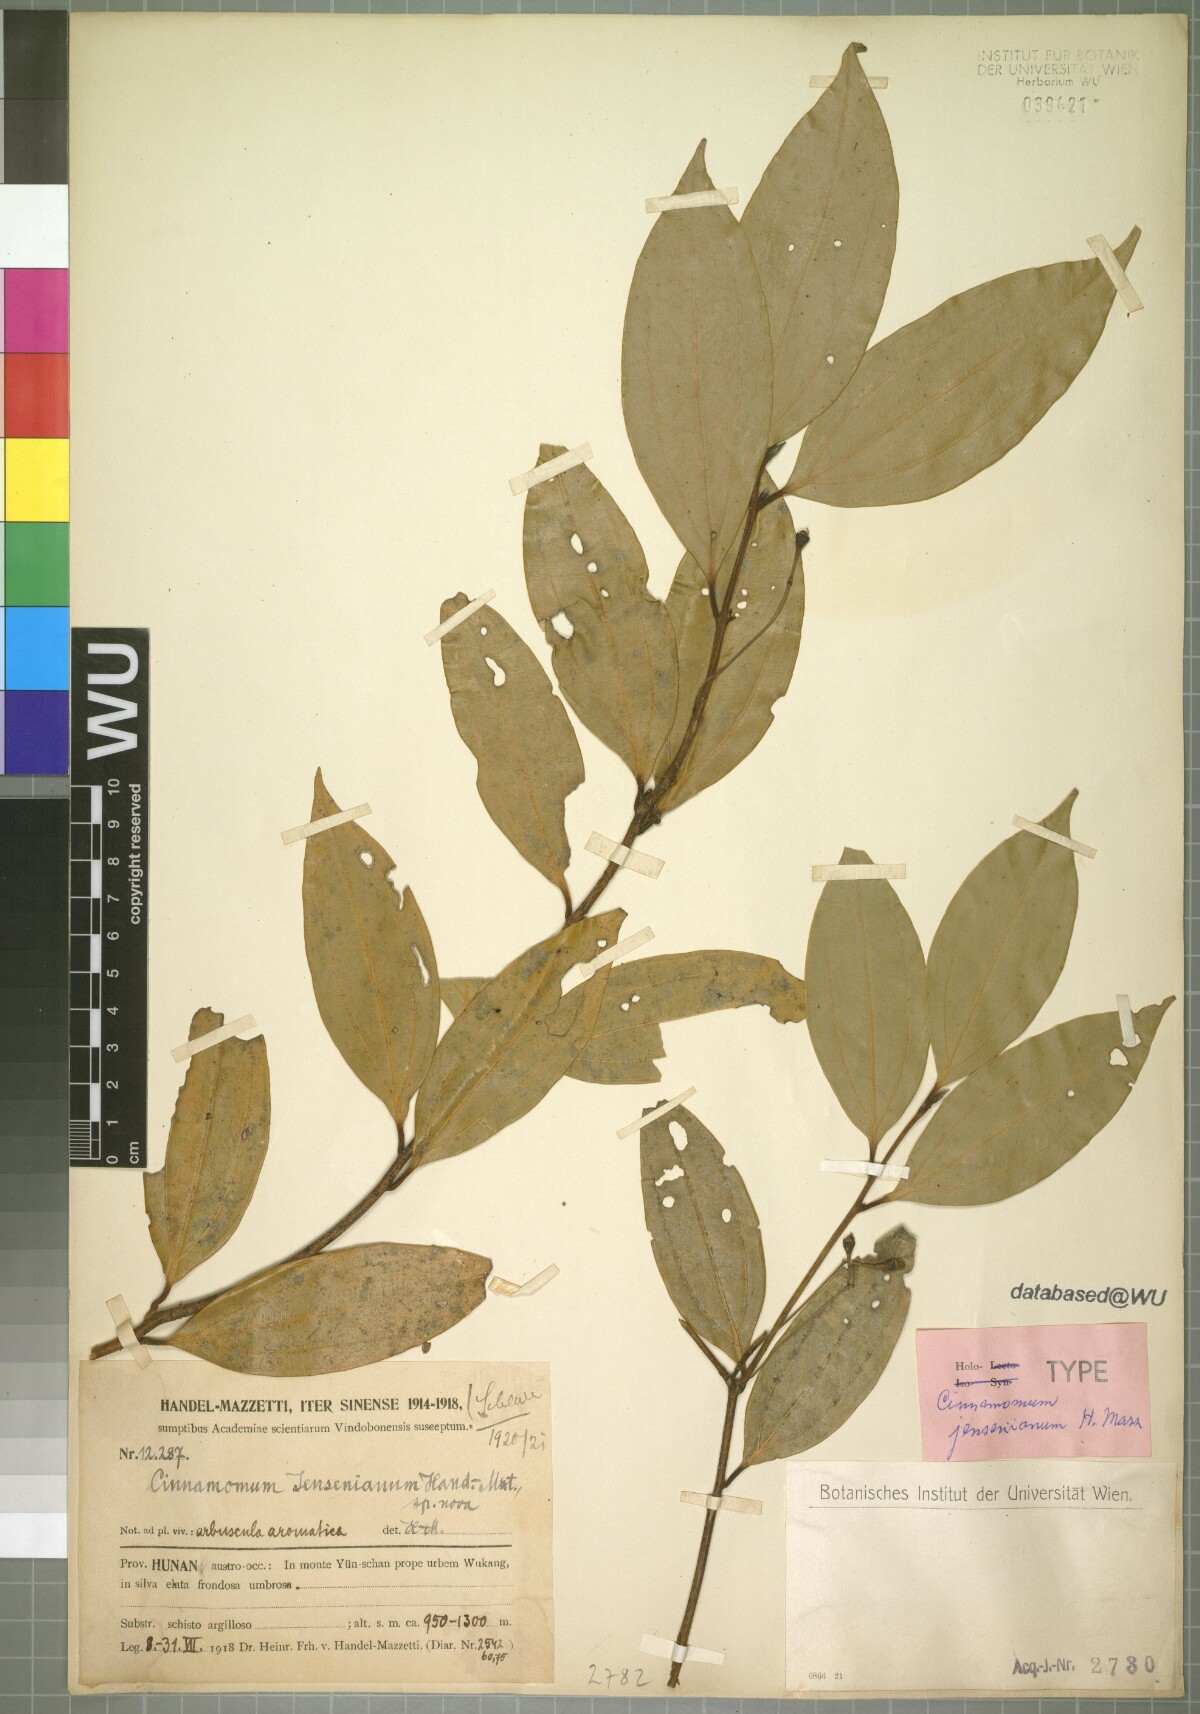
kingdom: Plantae
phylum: Tracheophyta
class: Magnoliopsida
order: Laurales
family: Lauraceae
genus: Cinnamomum
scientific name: Cinnamomum jensenianum
